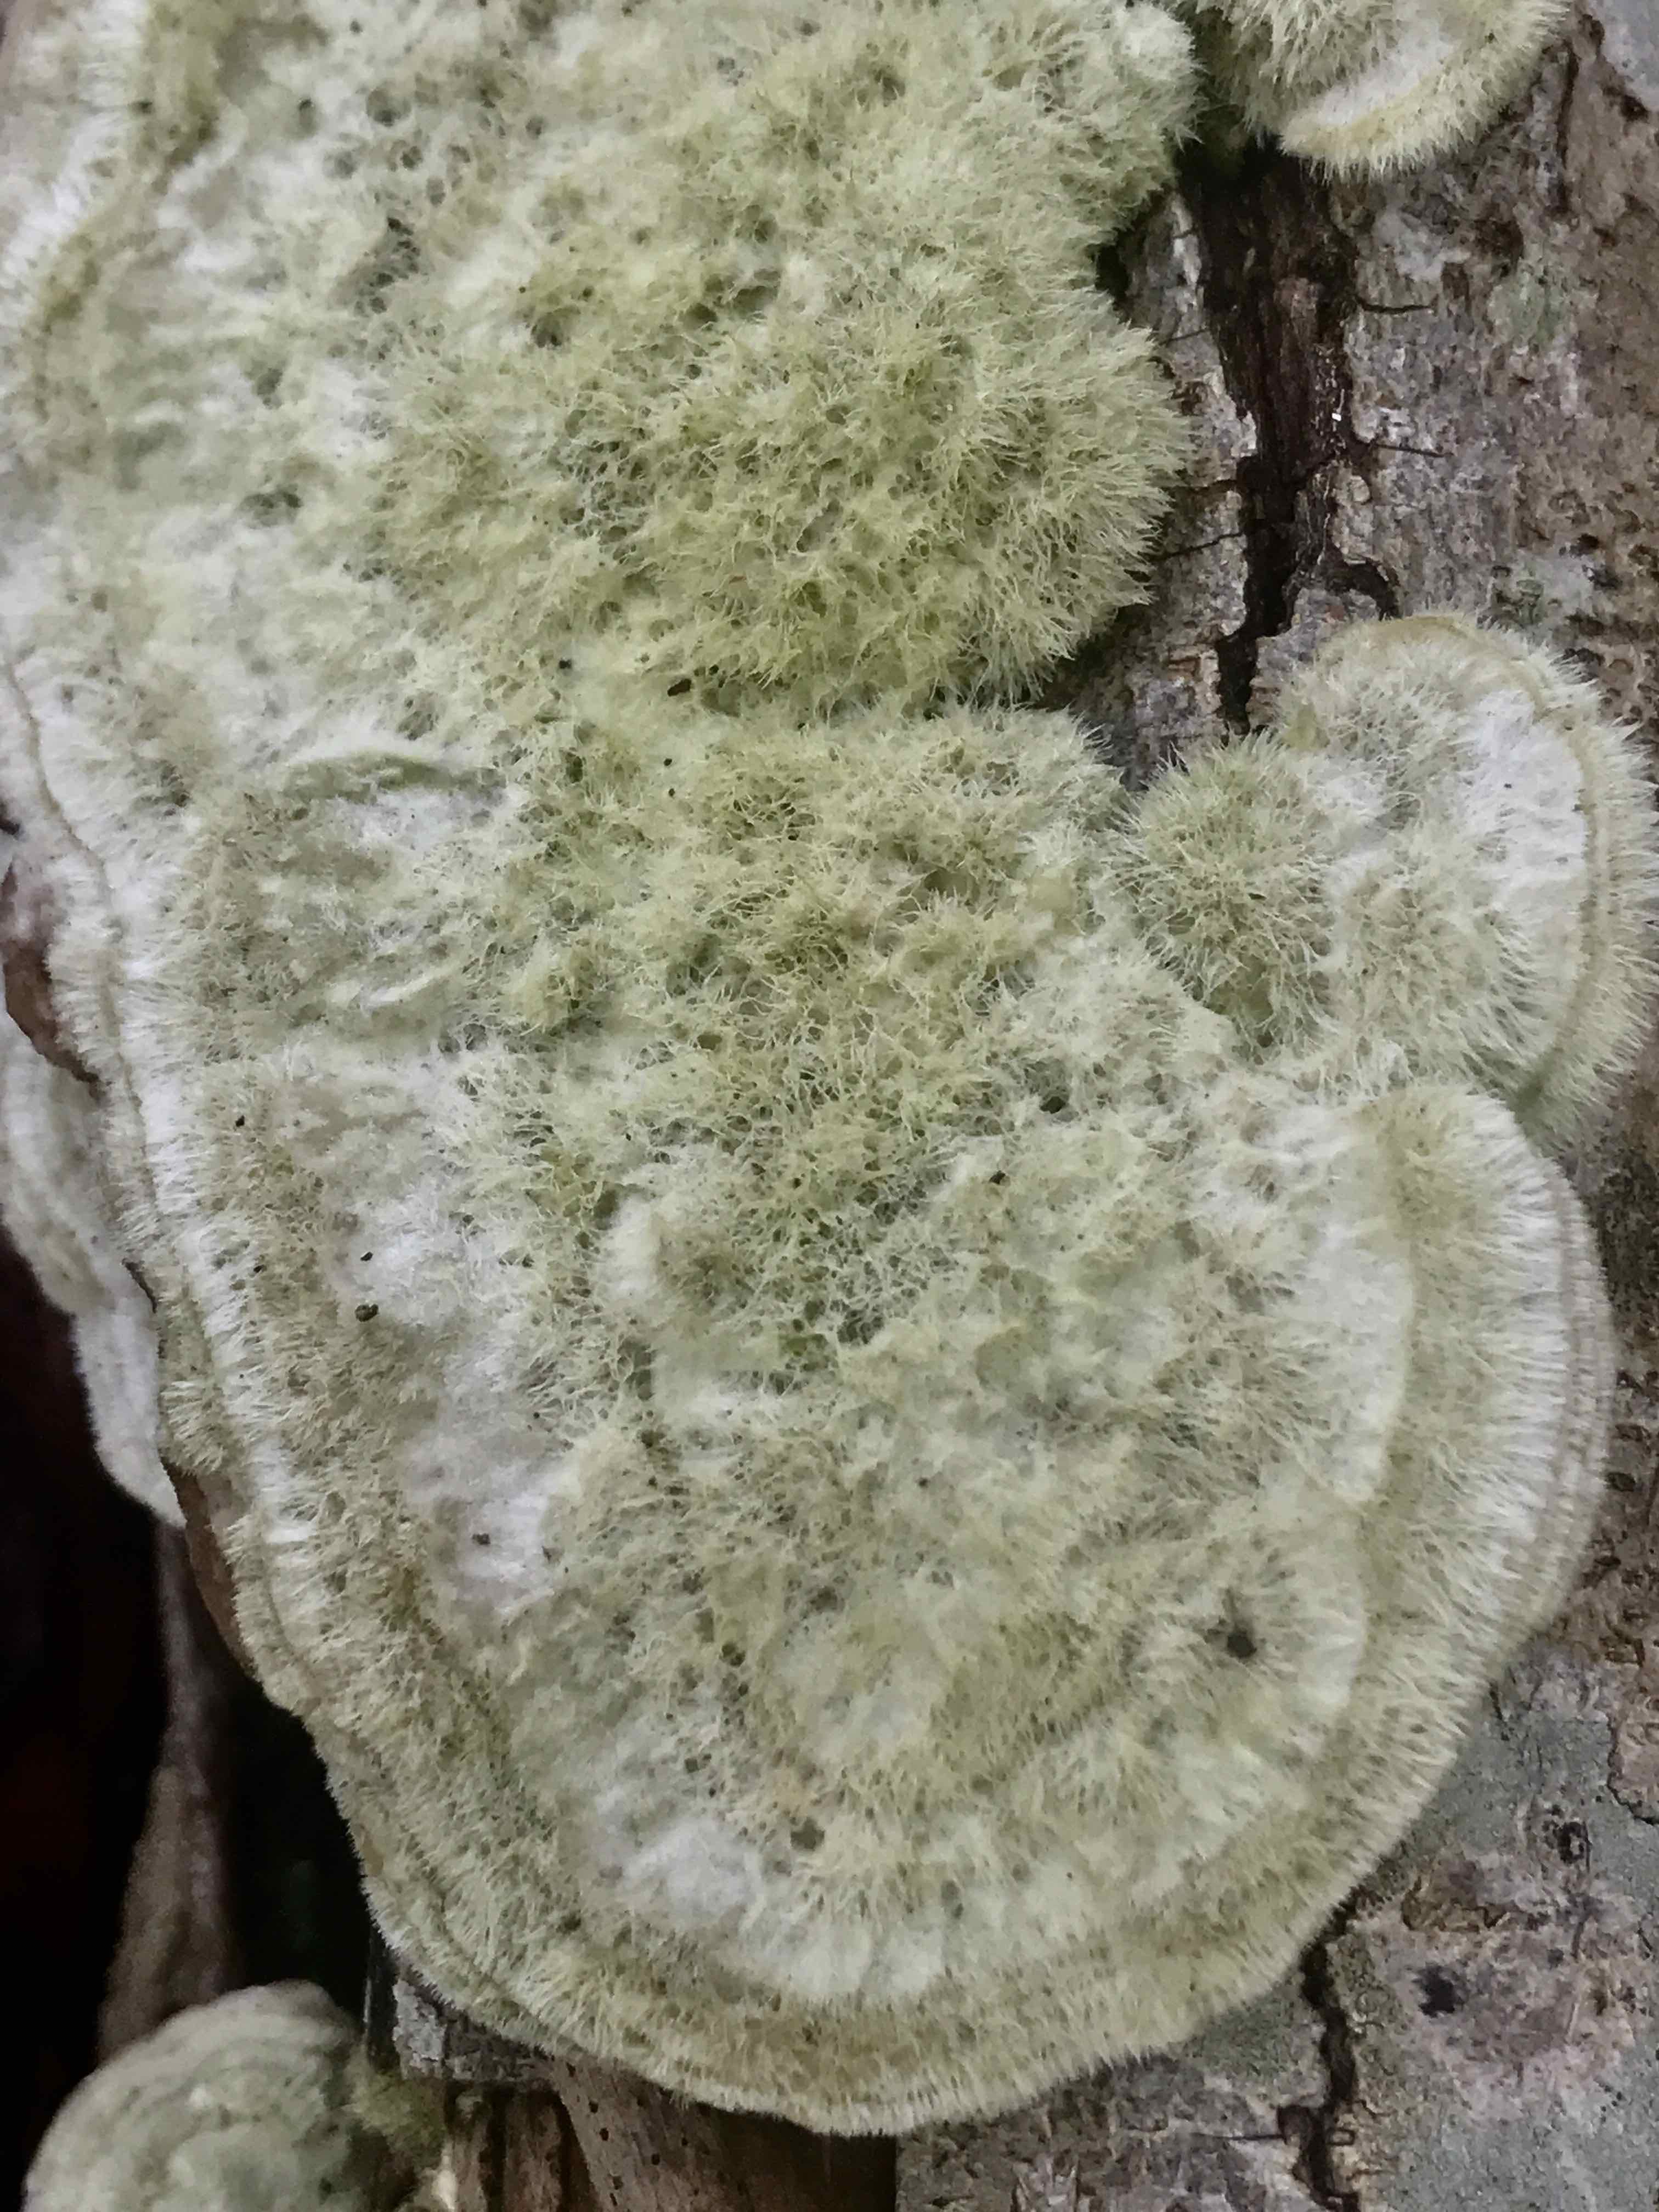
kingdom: Fungi
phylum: Basidiomycota
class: Agaricomycetes
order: Polyporales
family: Polyporaceae
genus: Trametes
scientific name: Trametes hirsuta
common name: håret læderporesvamp
